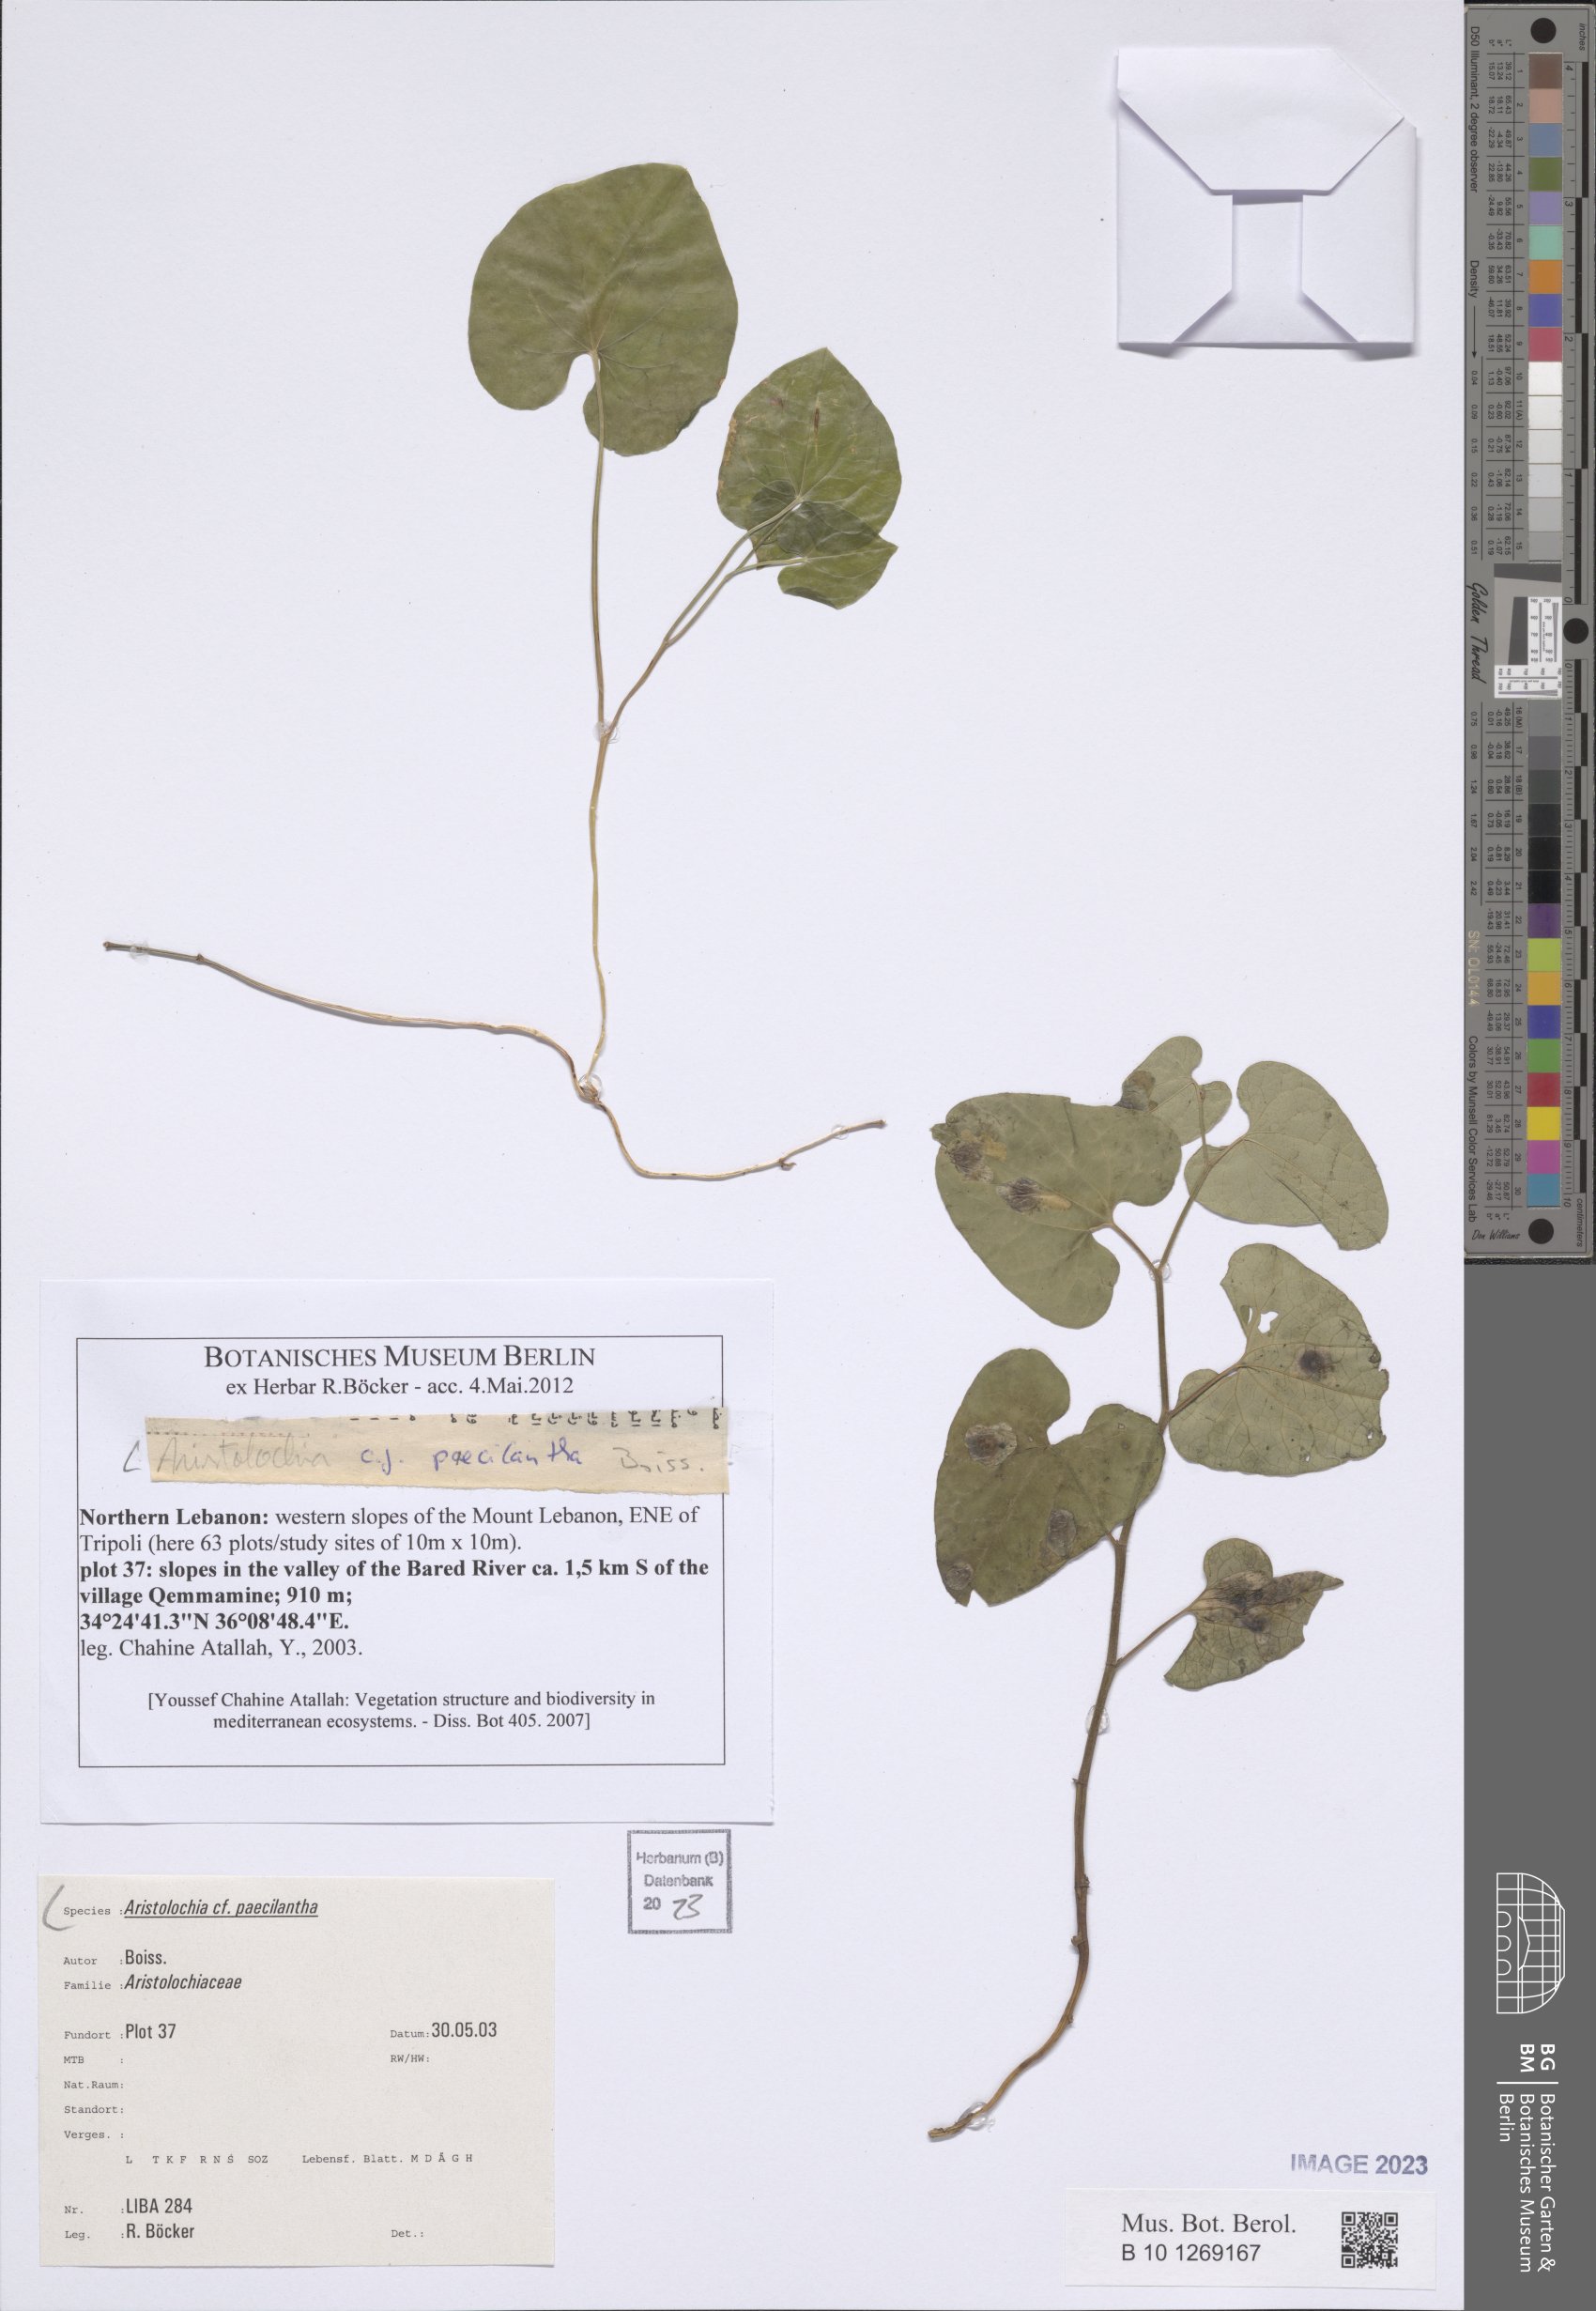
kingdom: Plantae
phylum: Tracheophyta
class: Magnoliopsida
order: Piperales
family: Aristolochiaceae
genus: Aristolochia
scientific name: Aristolochia paecilantha
